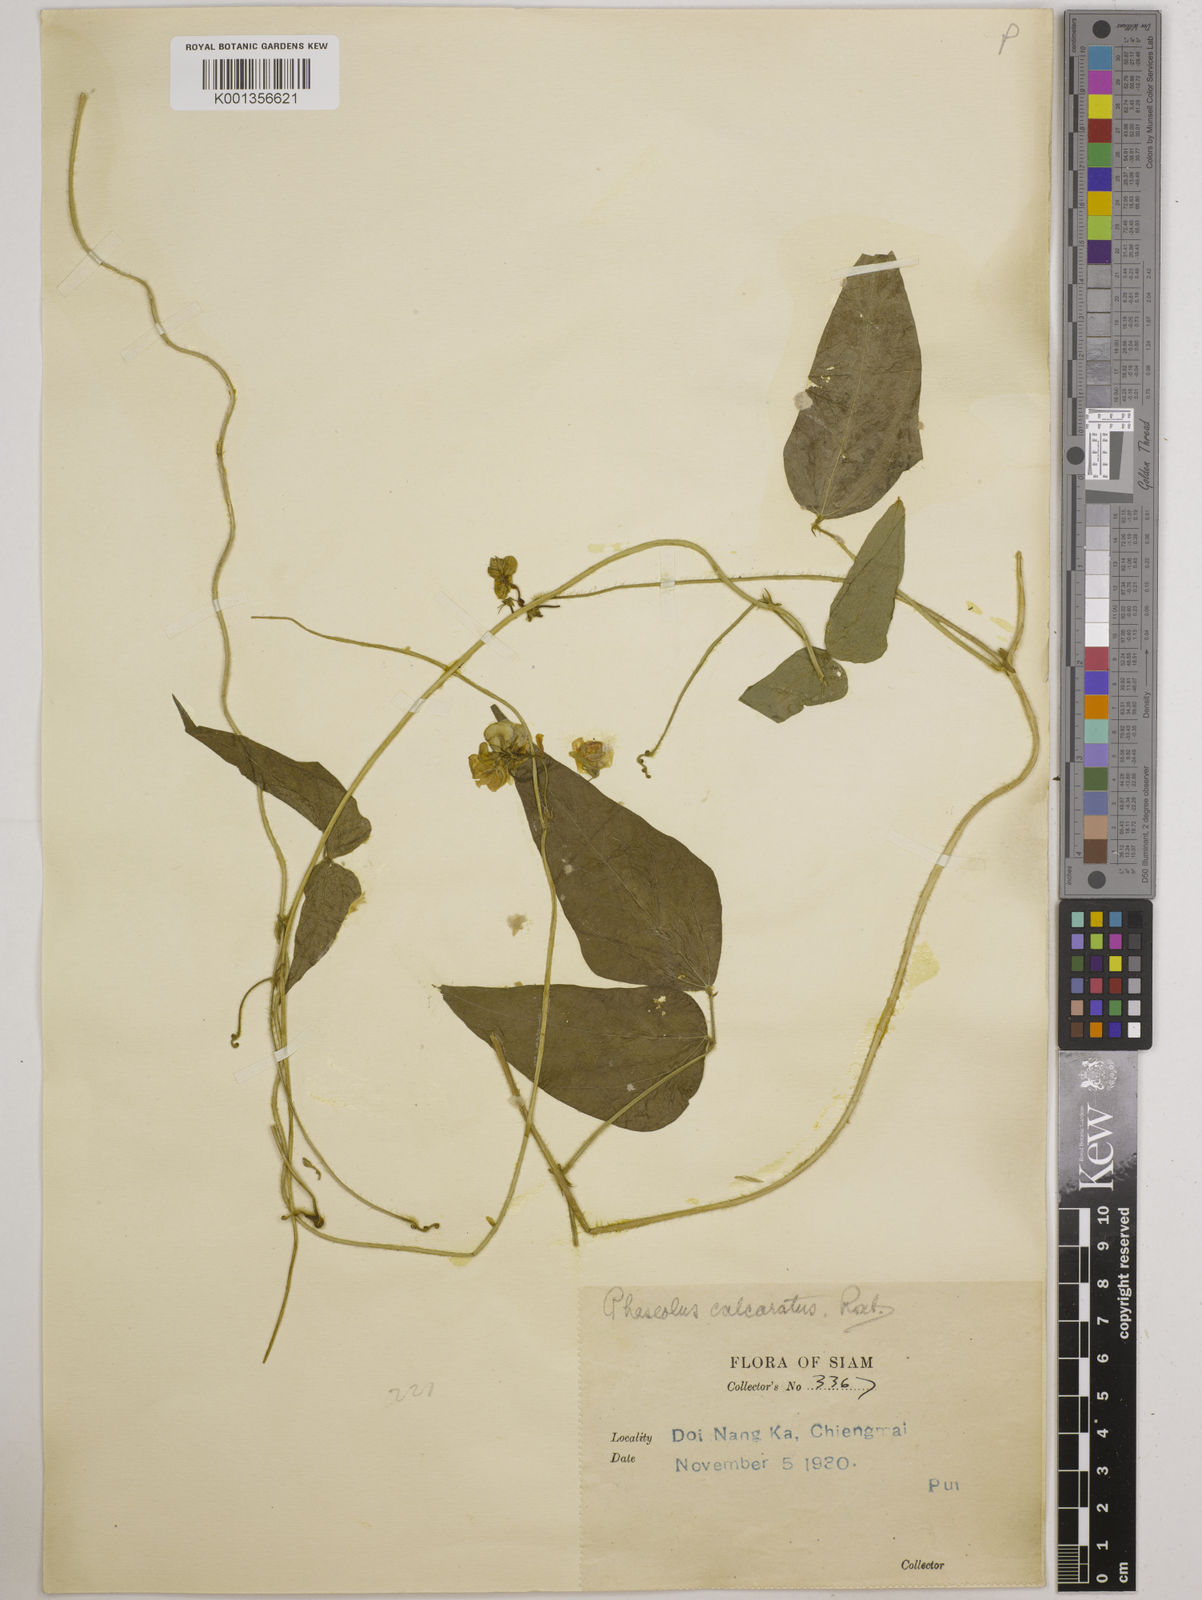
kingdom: Plantae
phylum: Tracheophyta
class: Magnoliopsida
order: Fabales
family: Fabaceae
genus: Vigna
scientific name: Vigna gracilicaulis
